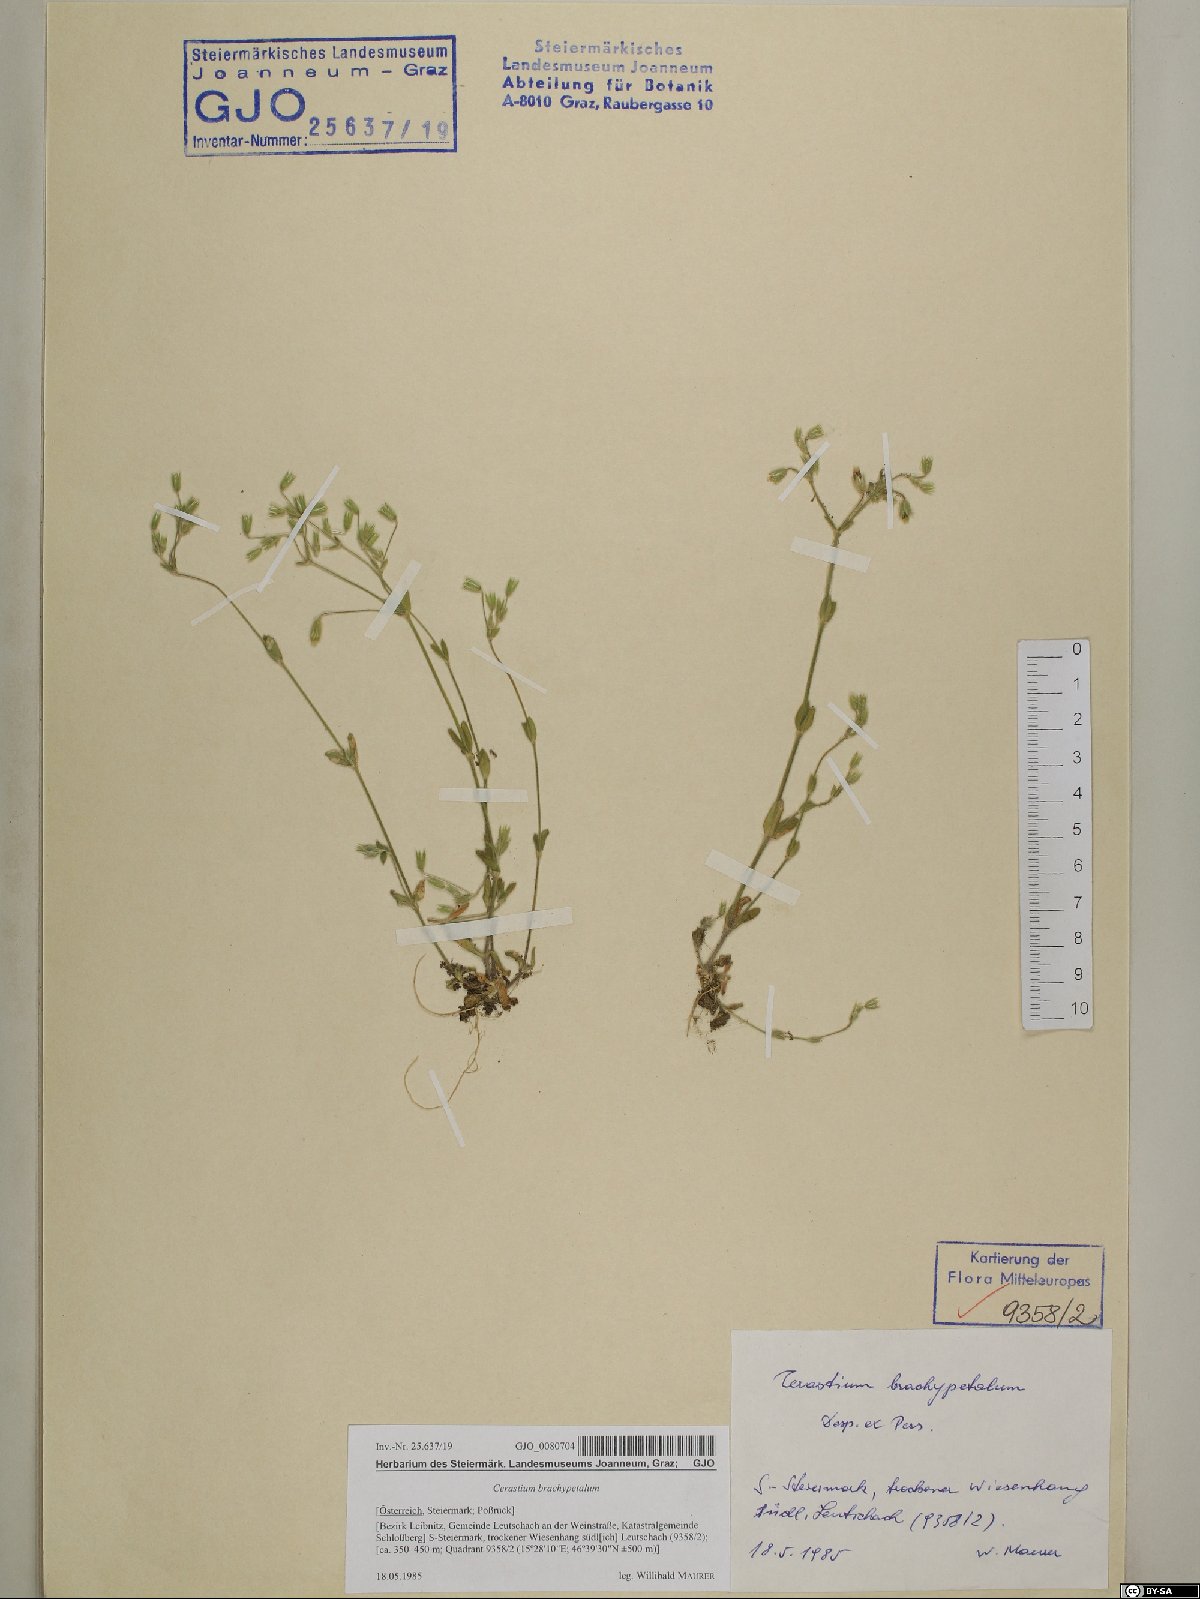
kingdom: Plantae
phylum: Tracheophyta
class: Magnoliopsida
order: Caryophyllales
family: Caryophyllaceae
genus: Cerastium
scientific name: Cerastium brachypetalum
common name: Grey mouse-ear
